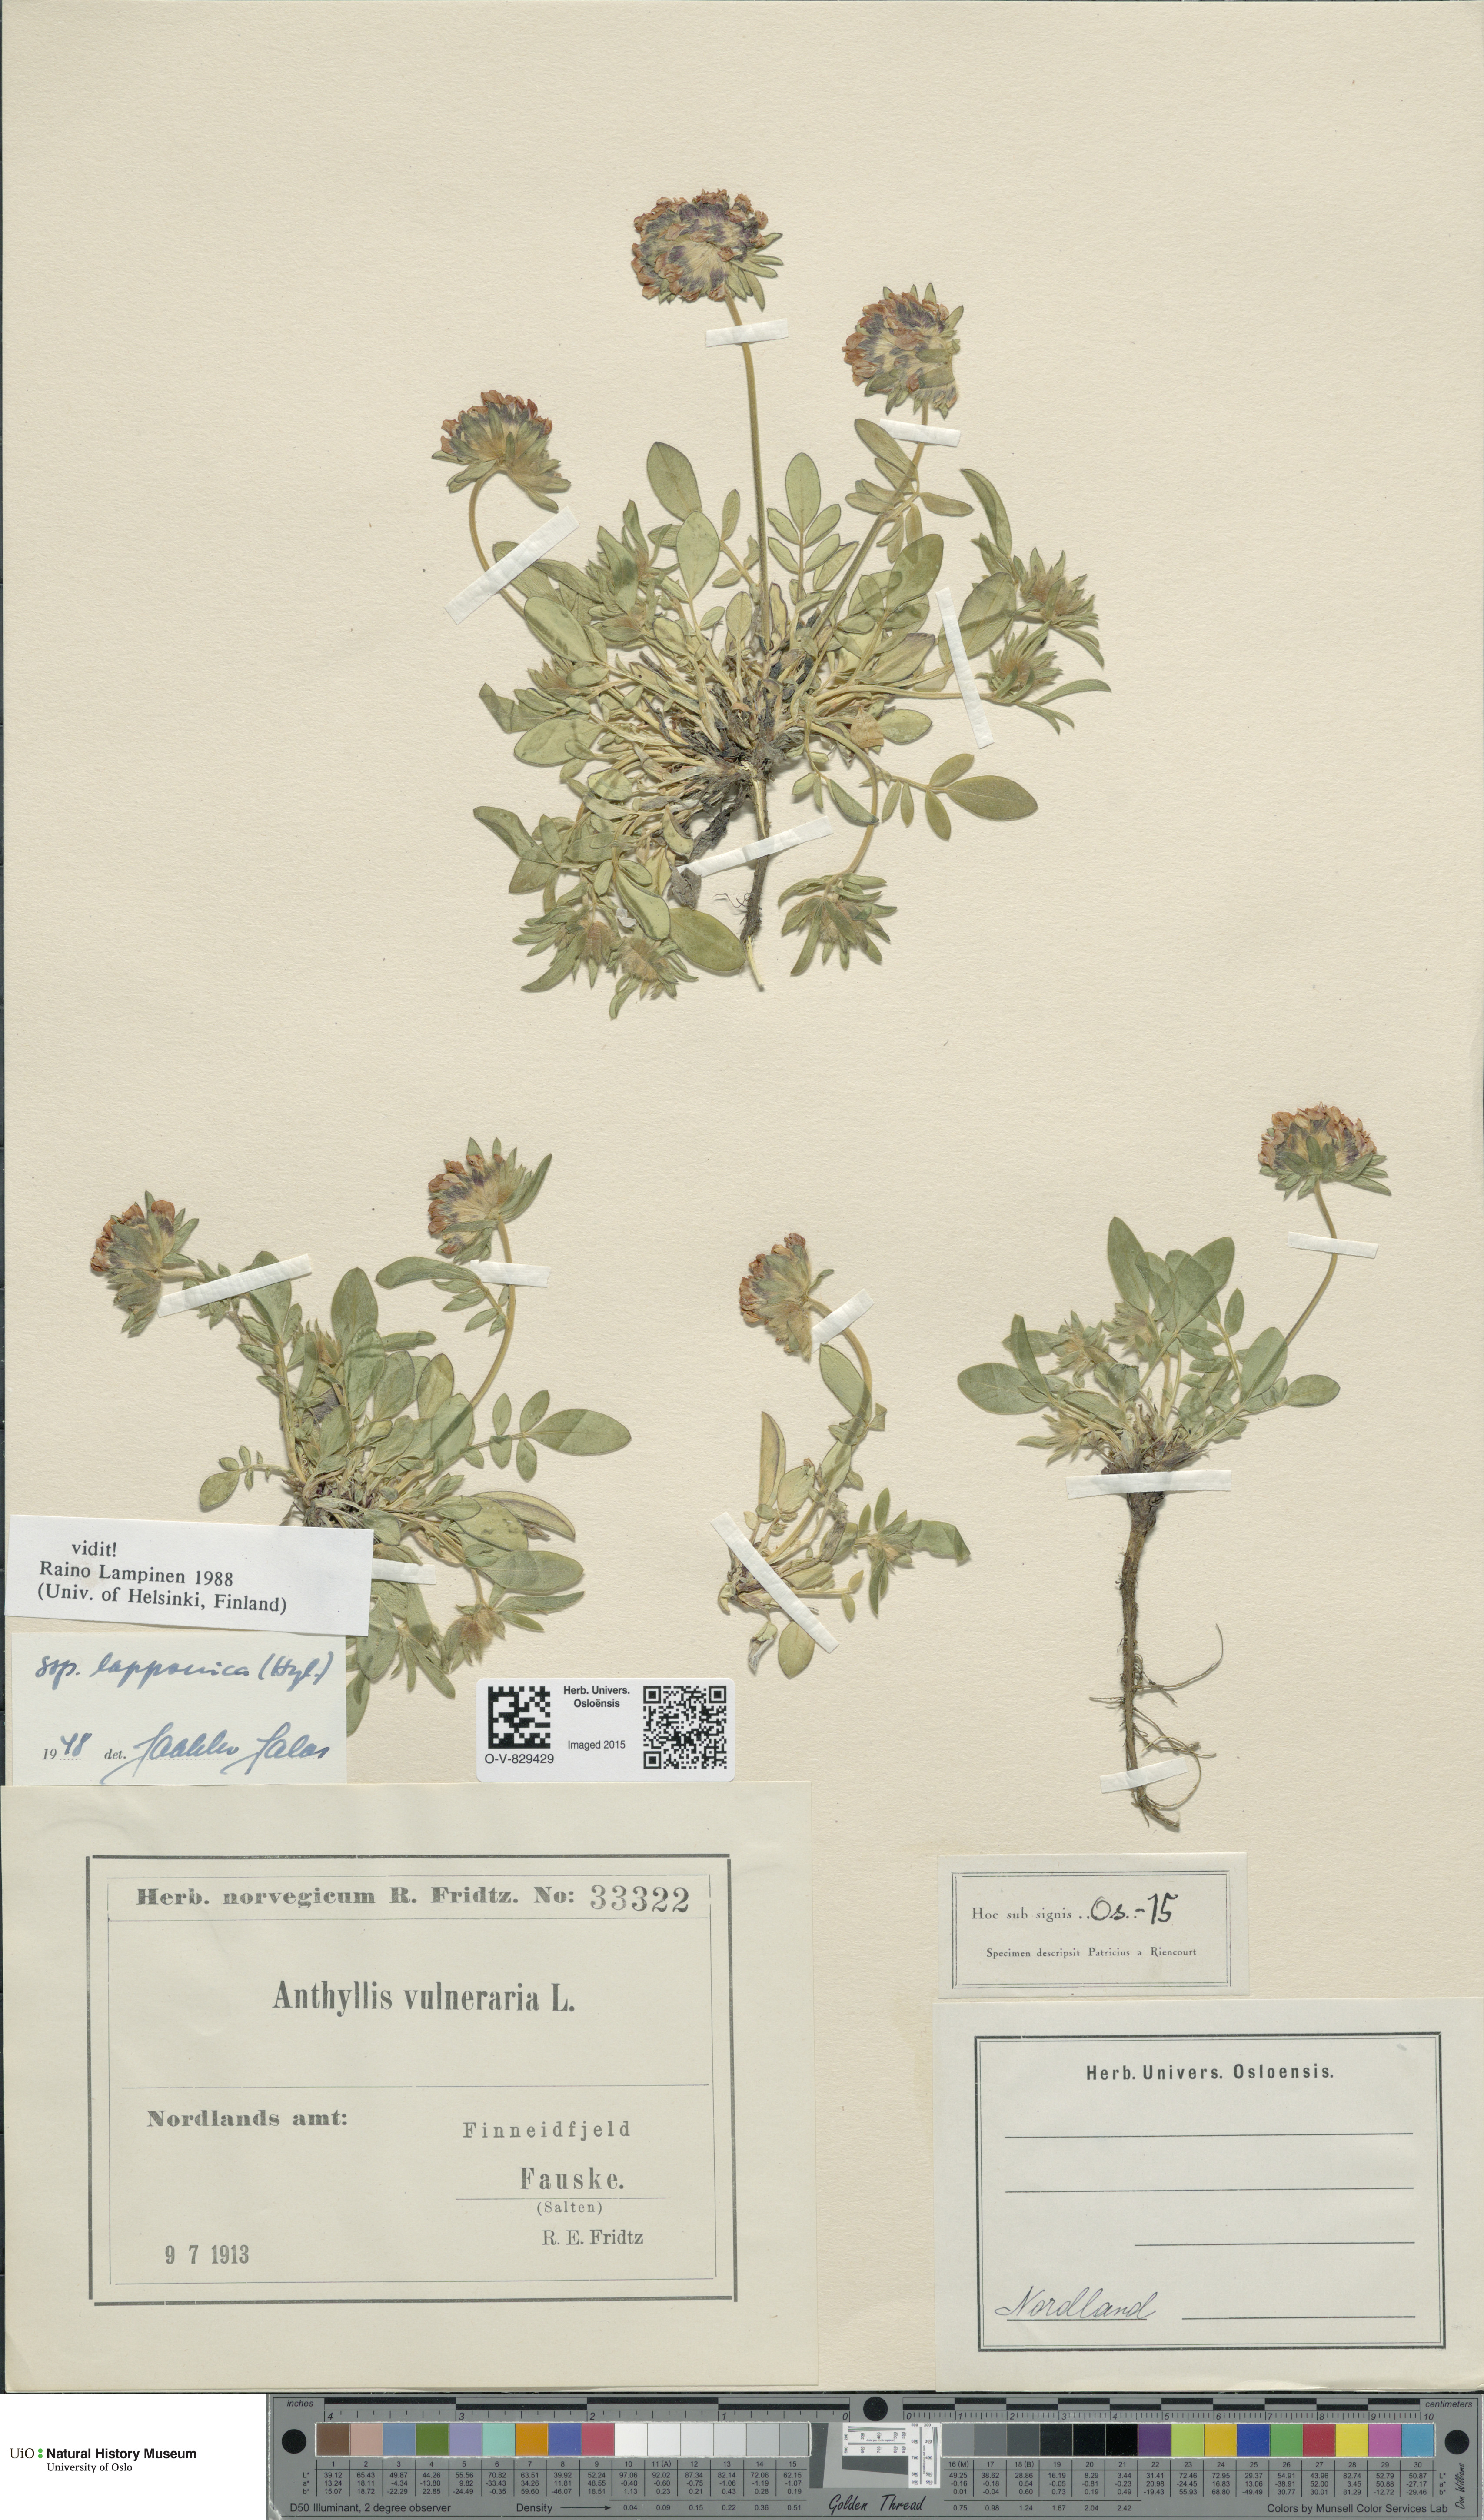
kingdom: Plantae
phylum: Tracheophyta
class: Magnoliopsida
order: Fabales
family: Fabaceae
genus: Anthyllis
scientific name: Anthyllis vulneraria
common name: Kidney vetch
